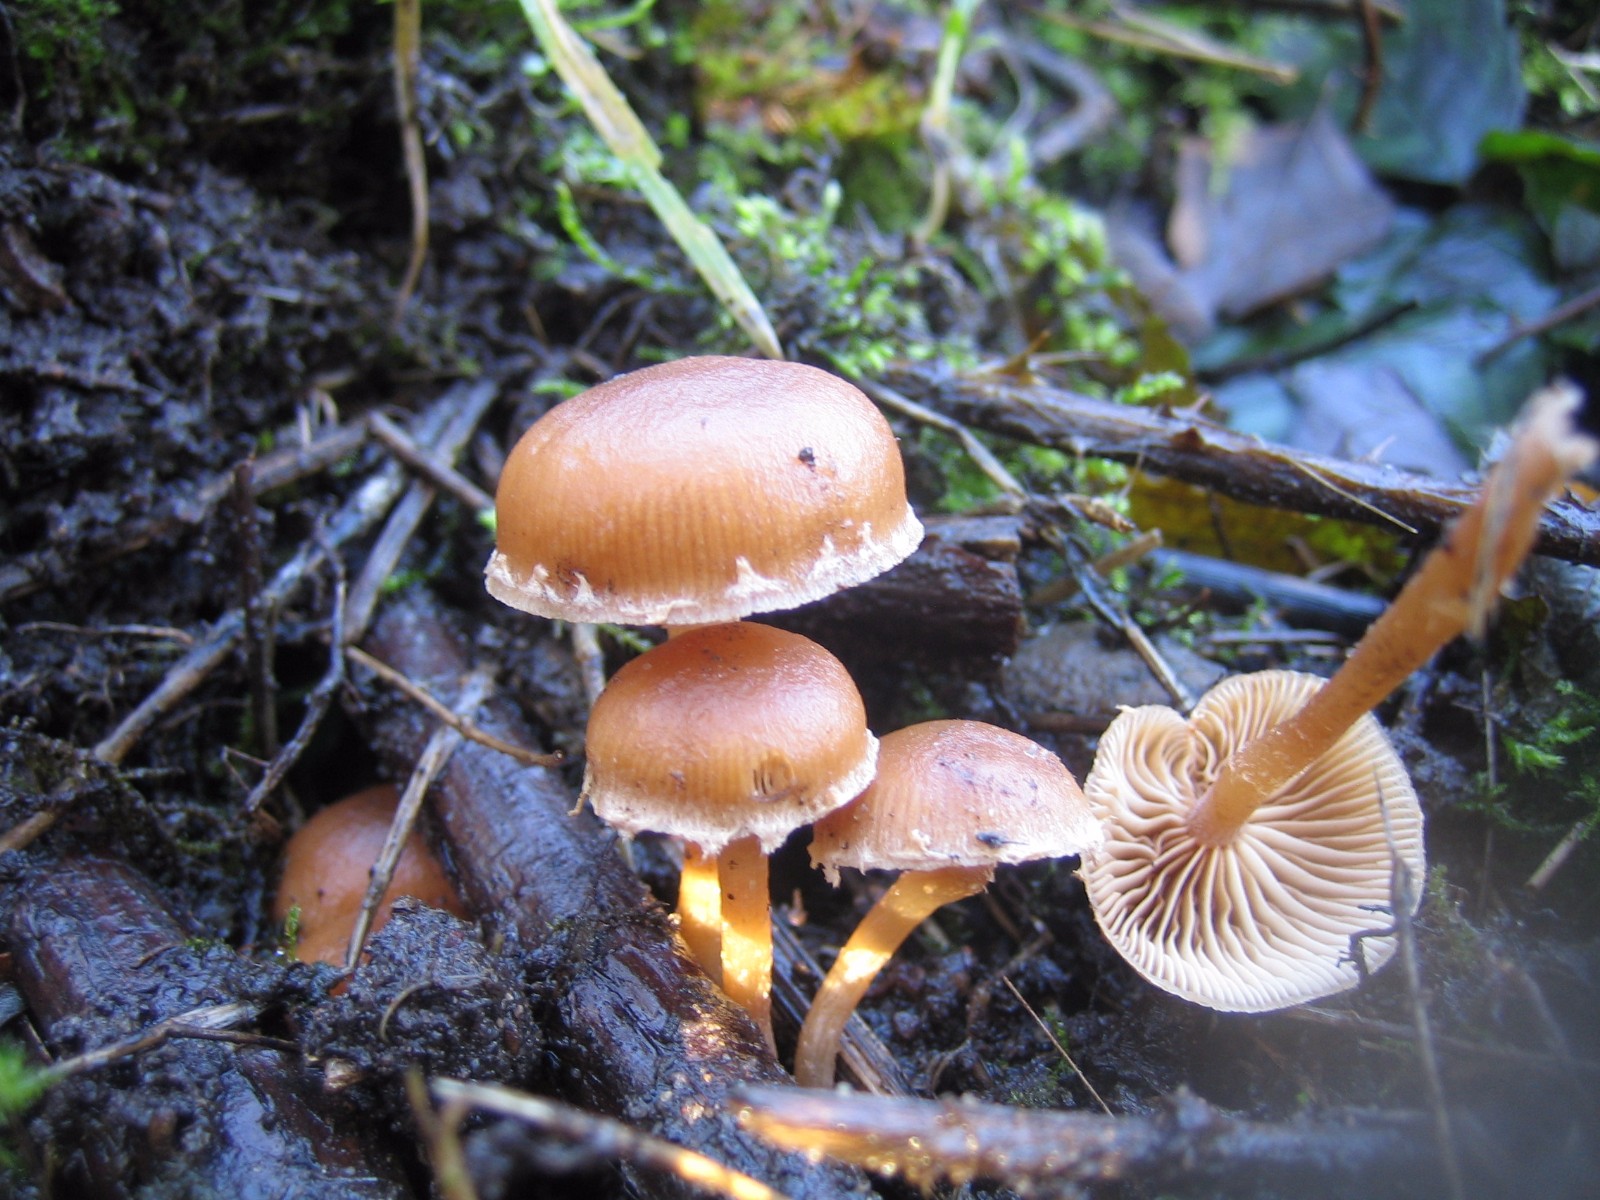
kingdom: Fungi
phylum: Basidiomycota
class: Agaricomycetes
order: Agaricales
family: Tubariaceae
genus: Tubaria
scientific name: Tubaria furfuracea
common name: kliddet fnughat
